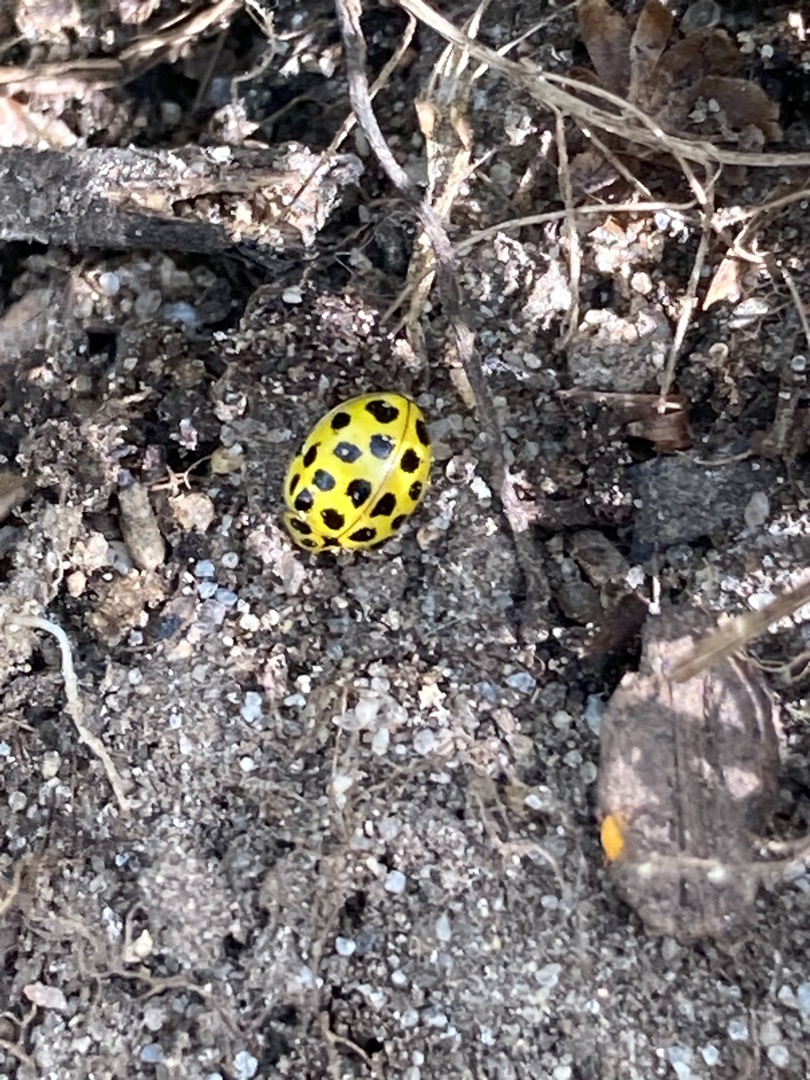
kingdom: Animalia
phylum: Arthropoda
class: Insecta
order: Coleoptera
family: Coccinellidae
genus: Psyllobora
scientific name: Psyllobora vigintiduopunctata
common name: Toogtyveplettet mariehøne
